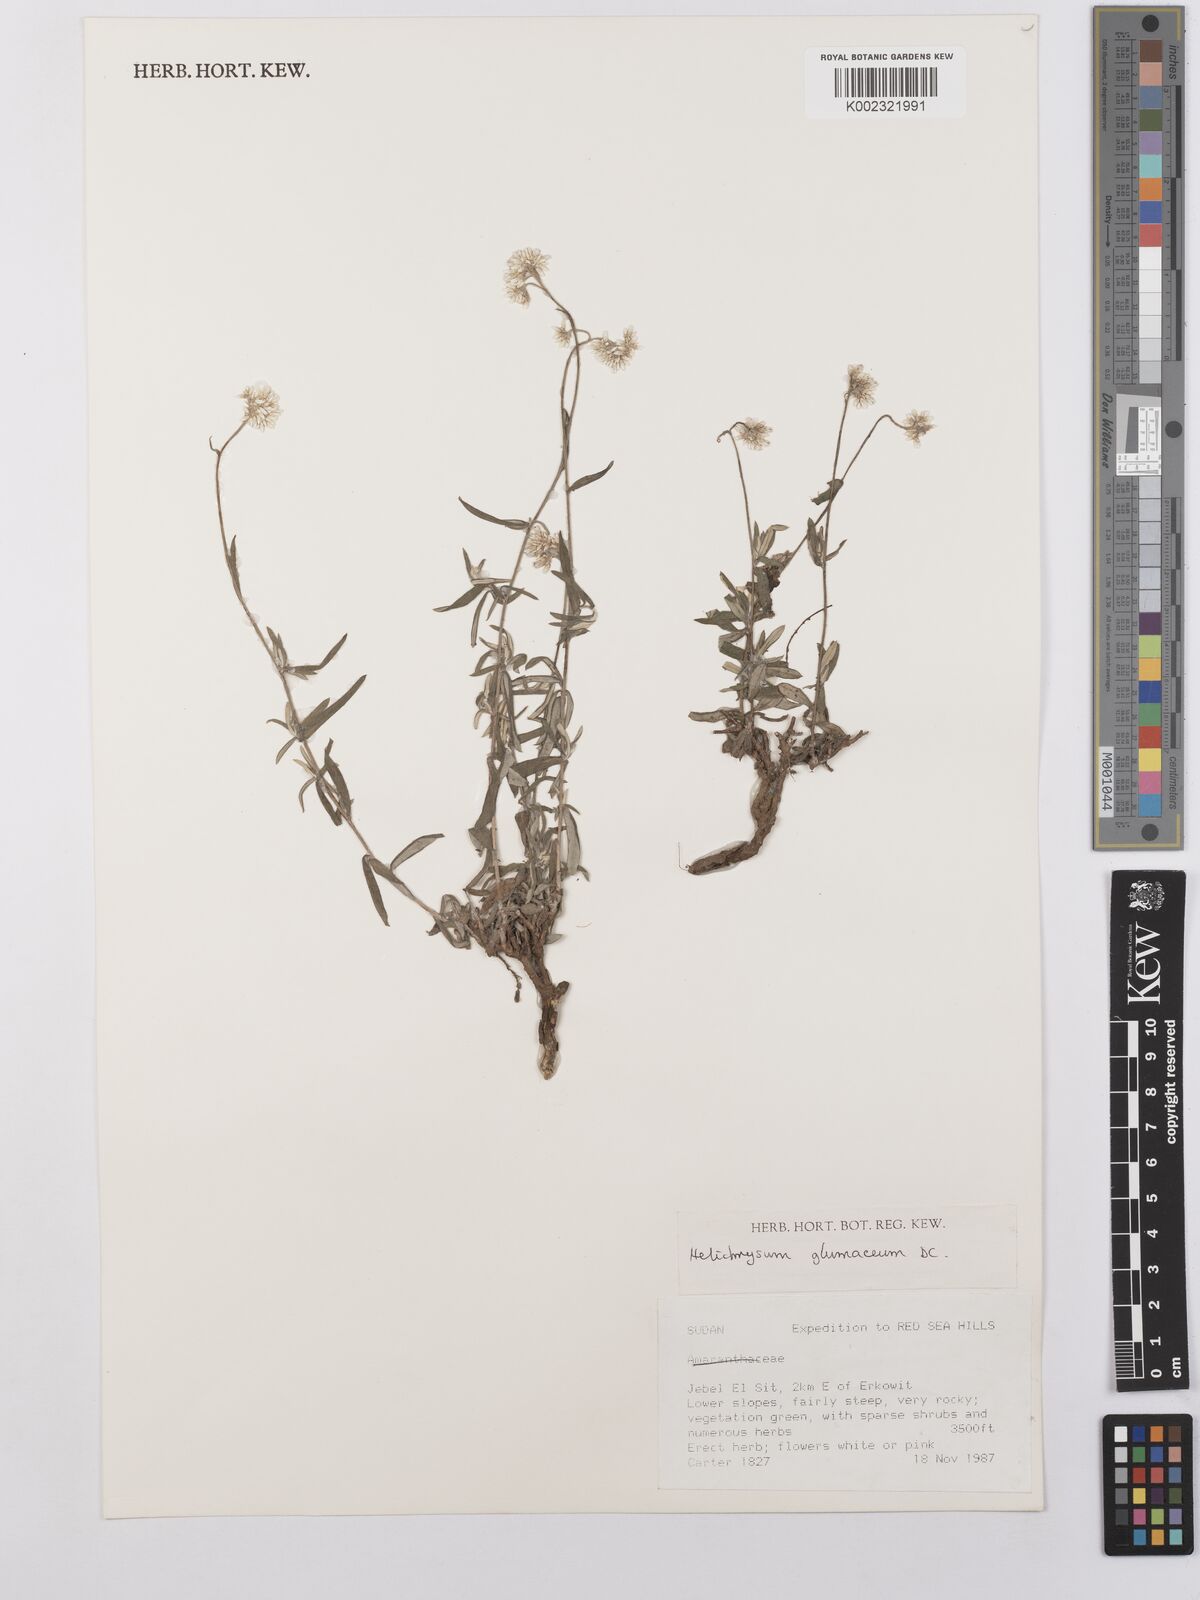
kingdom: Plantae
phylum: Tracheophyta
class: Magnoliopsida
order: Asterales
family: Asteraceae
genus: Helichrysum
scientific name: Helichrysum glumaceum
